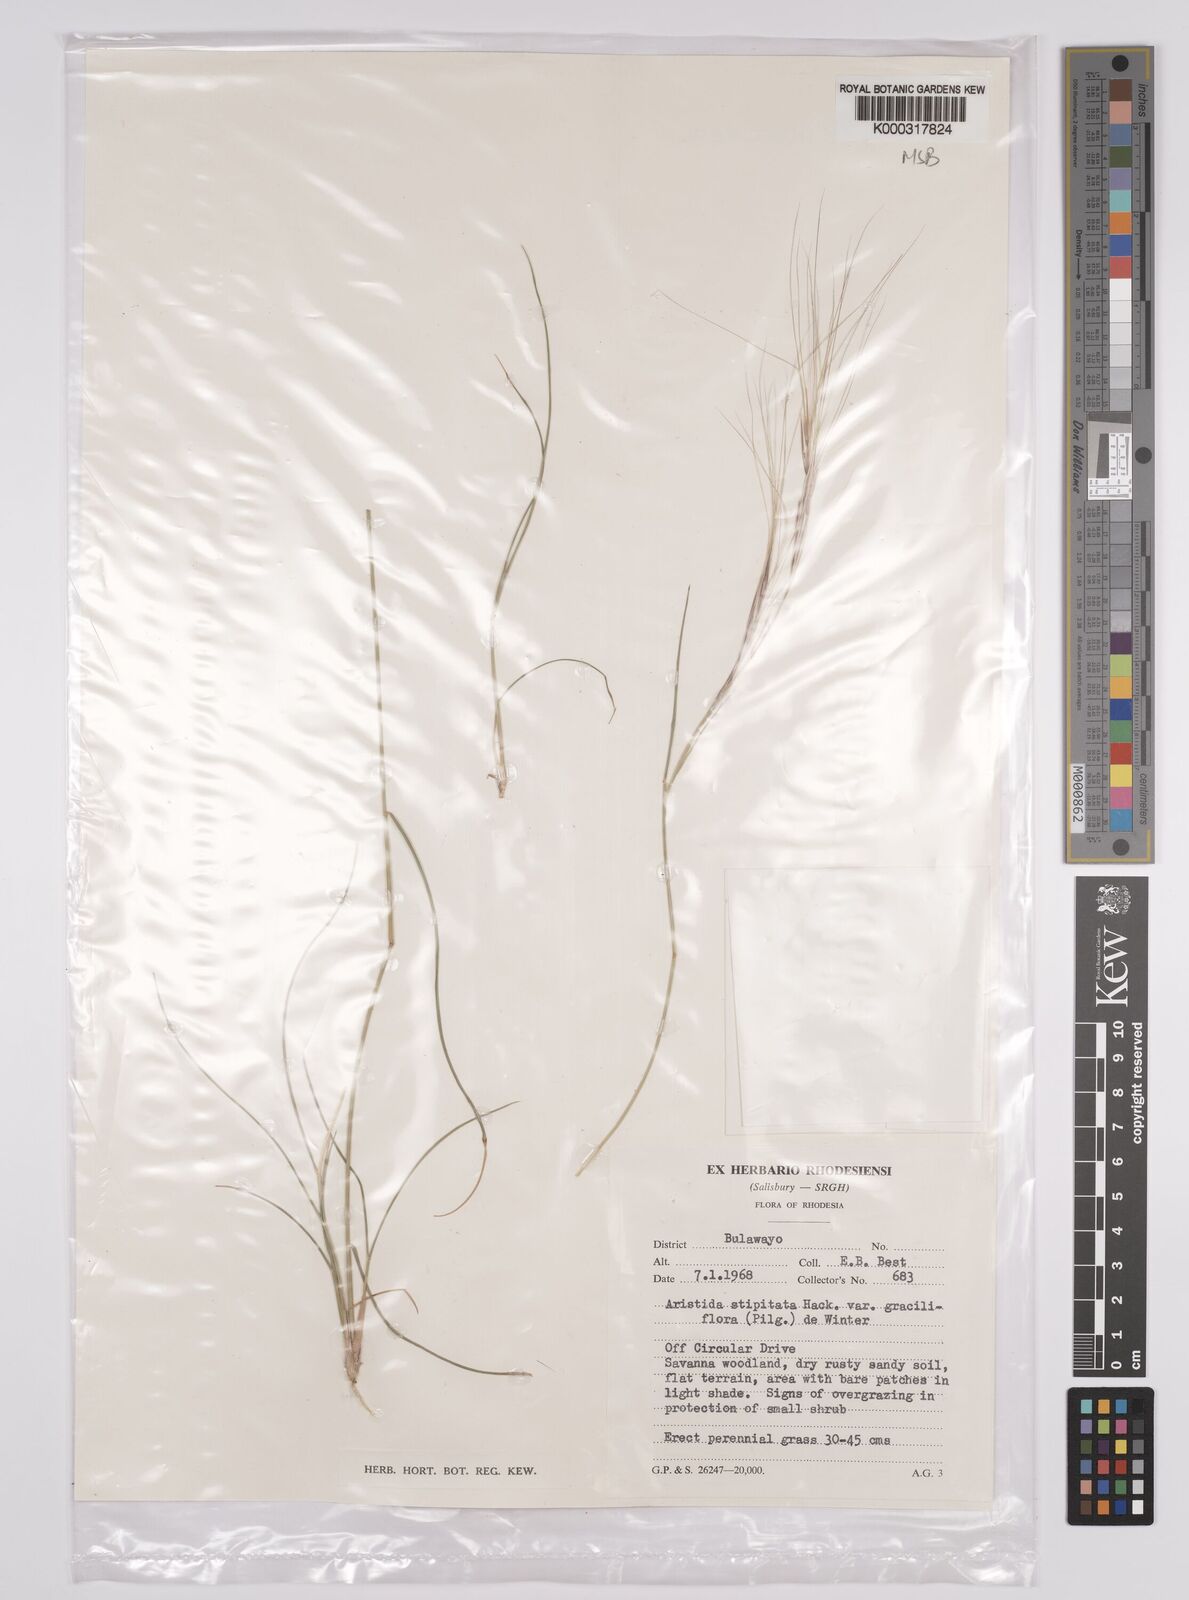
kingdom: Plantae
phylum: Tracheophyta
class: Liliopsida
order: Poales
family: Poaceae
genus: Aristida
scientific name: Aristida stipitata
